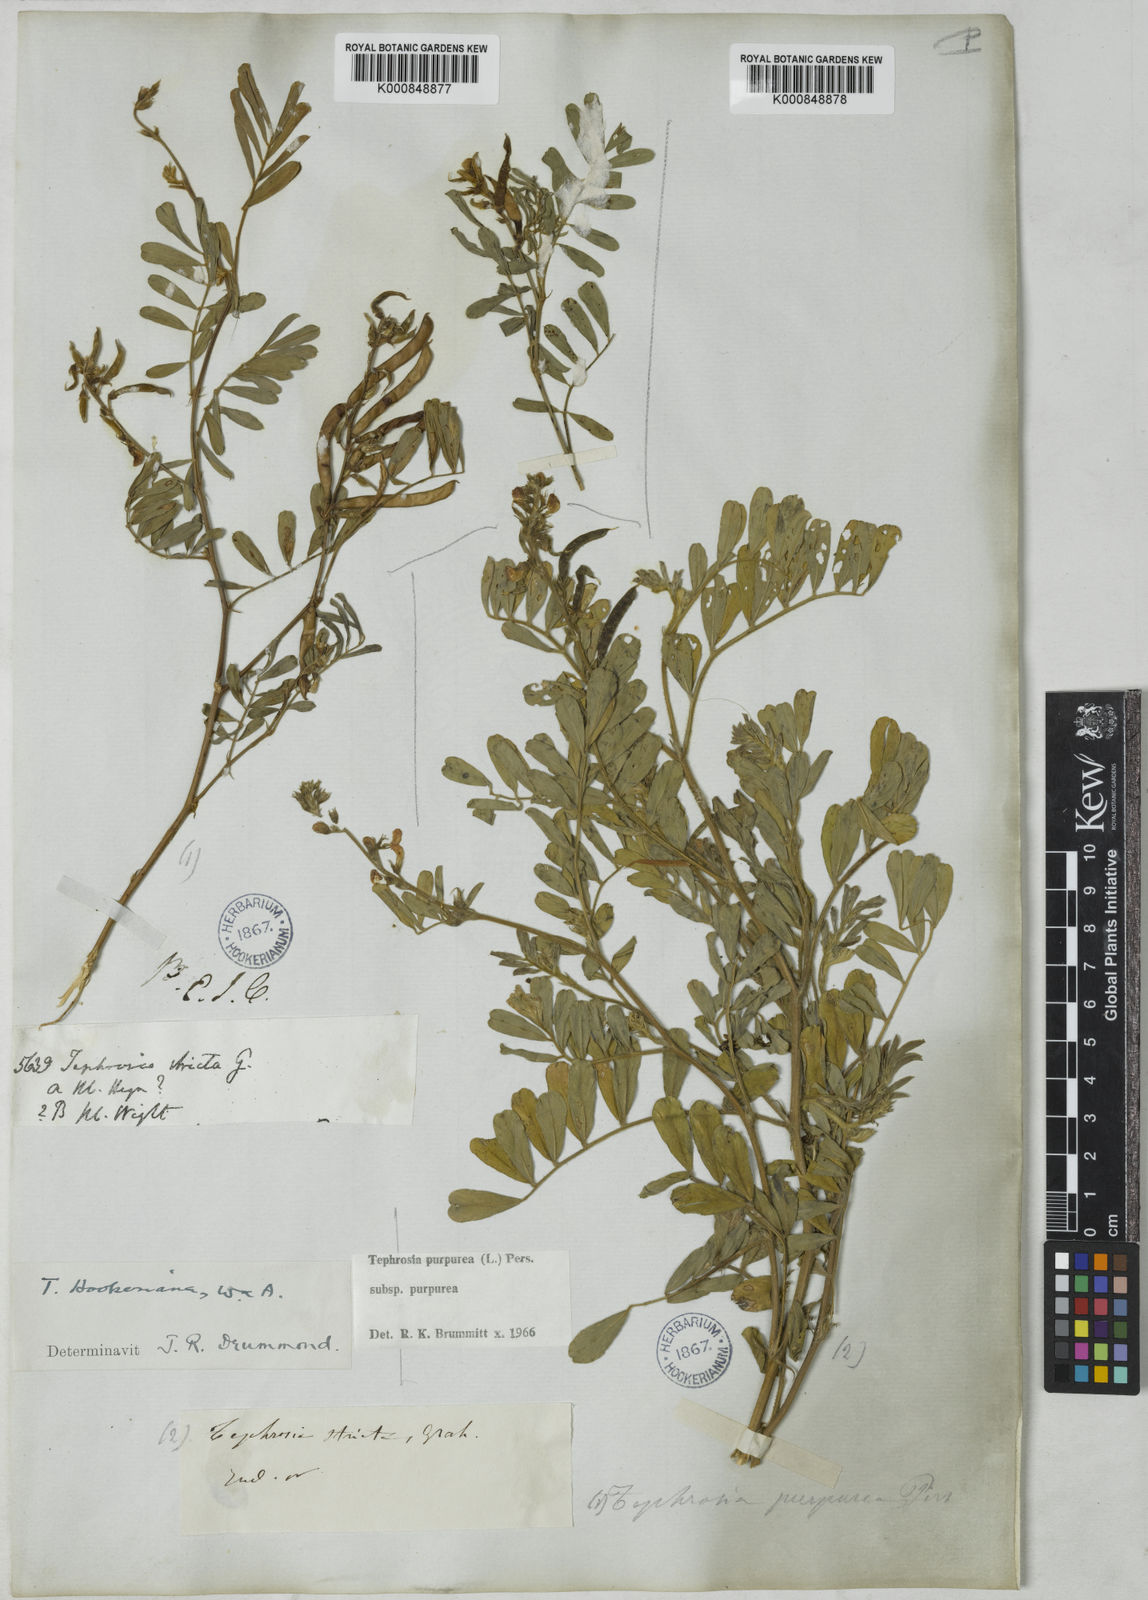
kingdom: Plantae
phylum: Tracheophyta
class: Magnoliopsida
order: Fabales
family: Fabaceae
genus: Tephrosia
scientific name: Tephrosia purpurea
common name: Fishpoison
